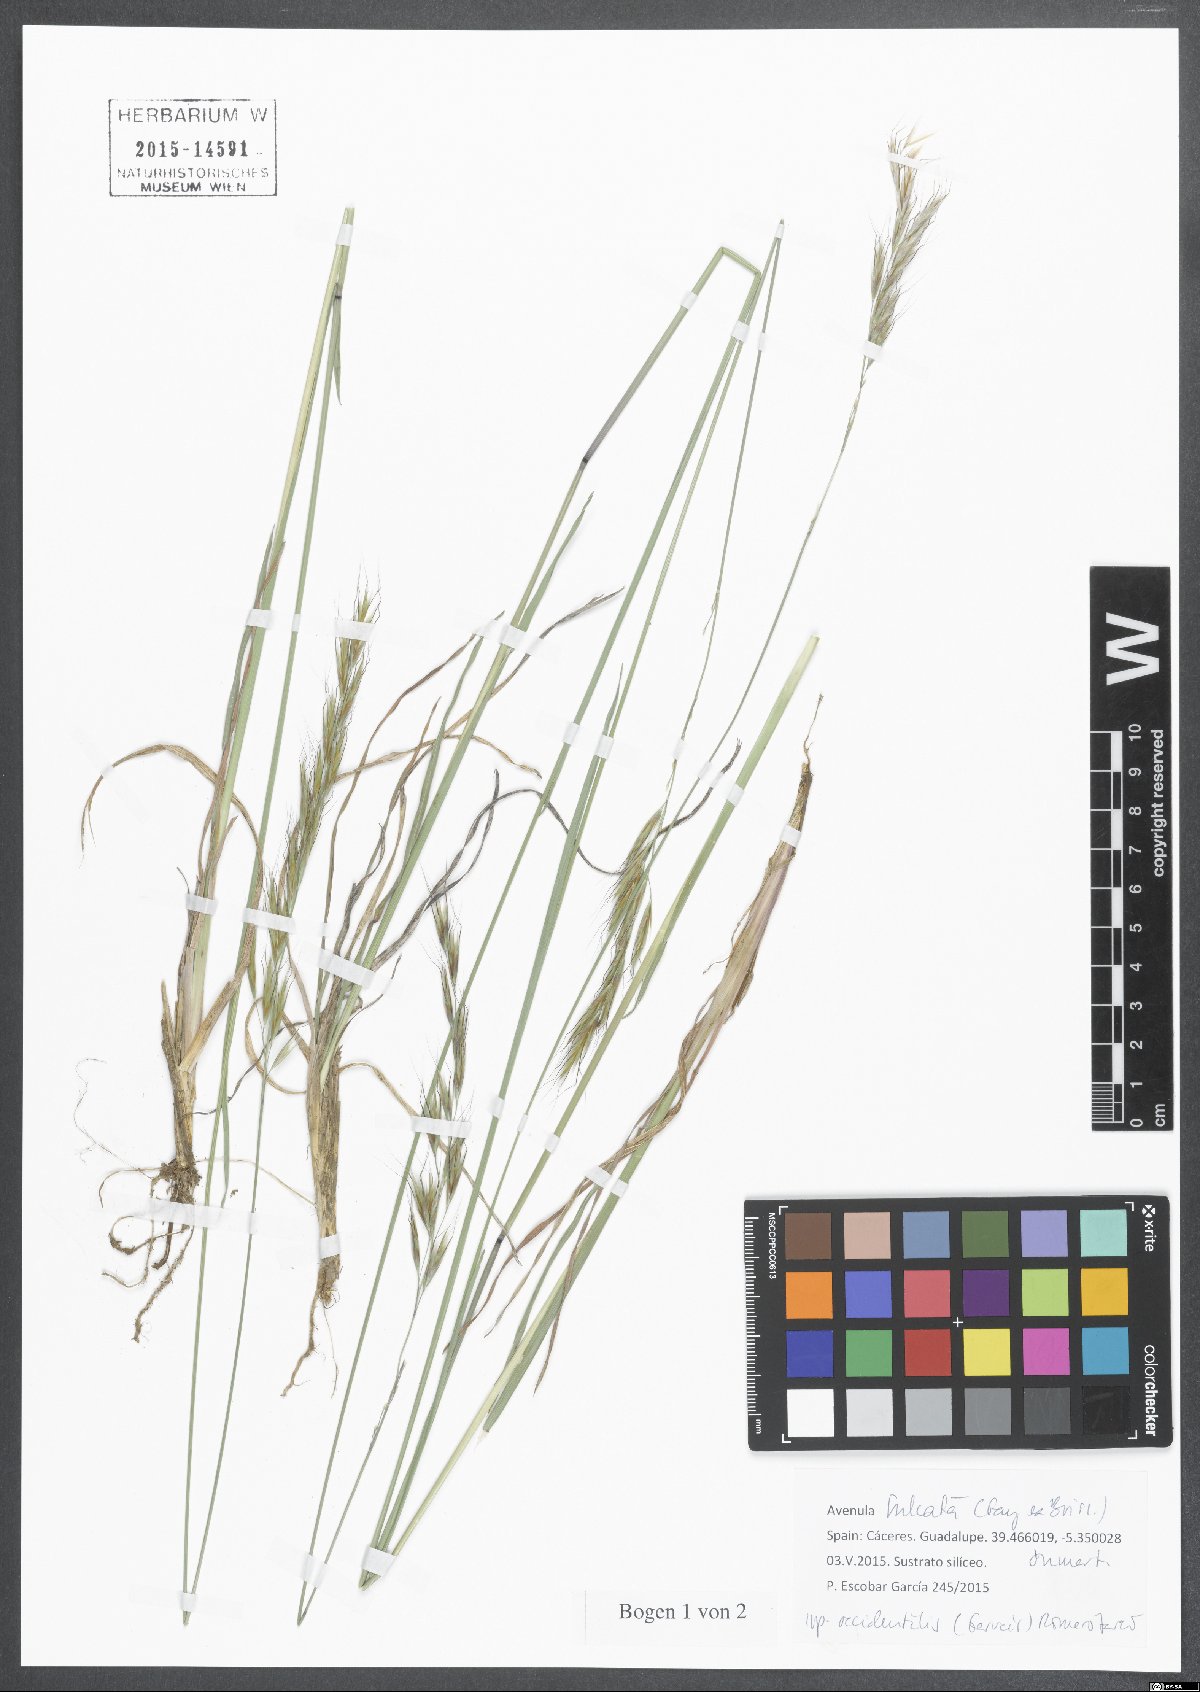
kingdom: Plantae
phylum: Tracheophyta
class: Liliopsida
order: Poales
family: Poaceae
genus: Helictochloa
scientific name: Helictochloa marginata
